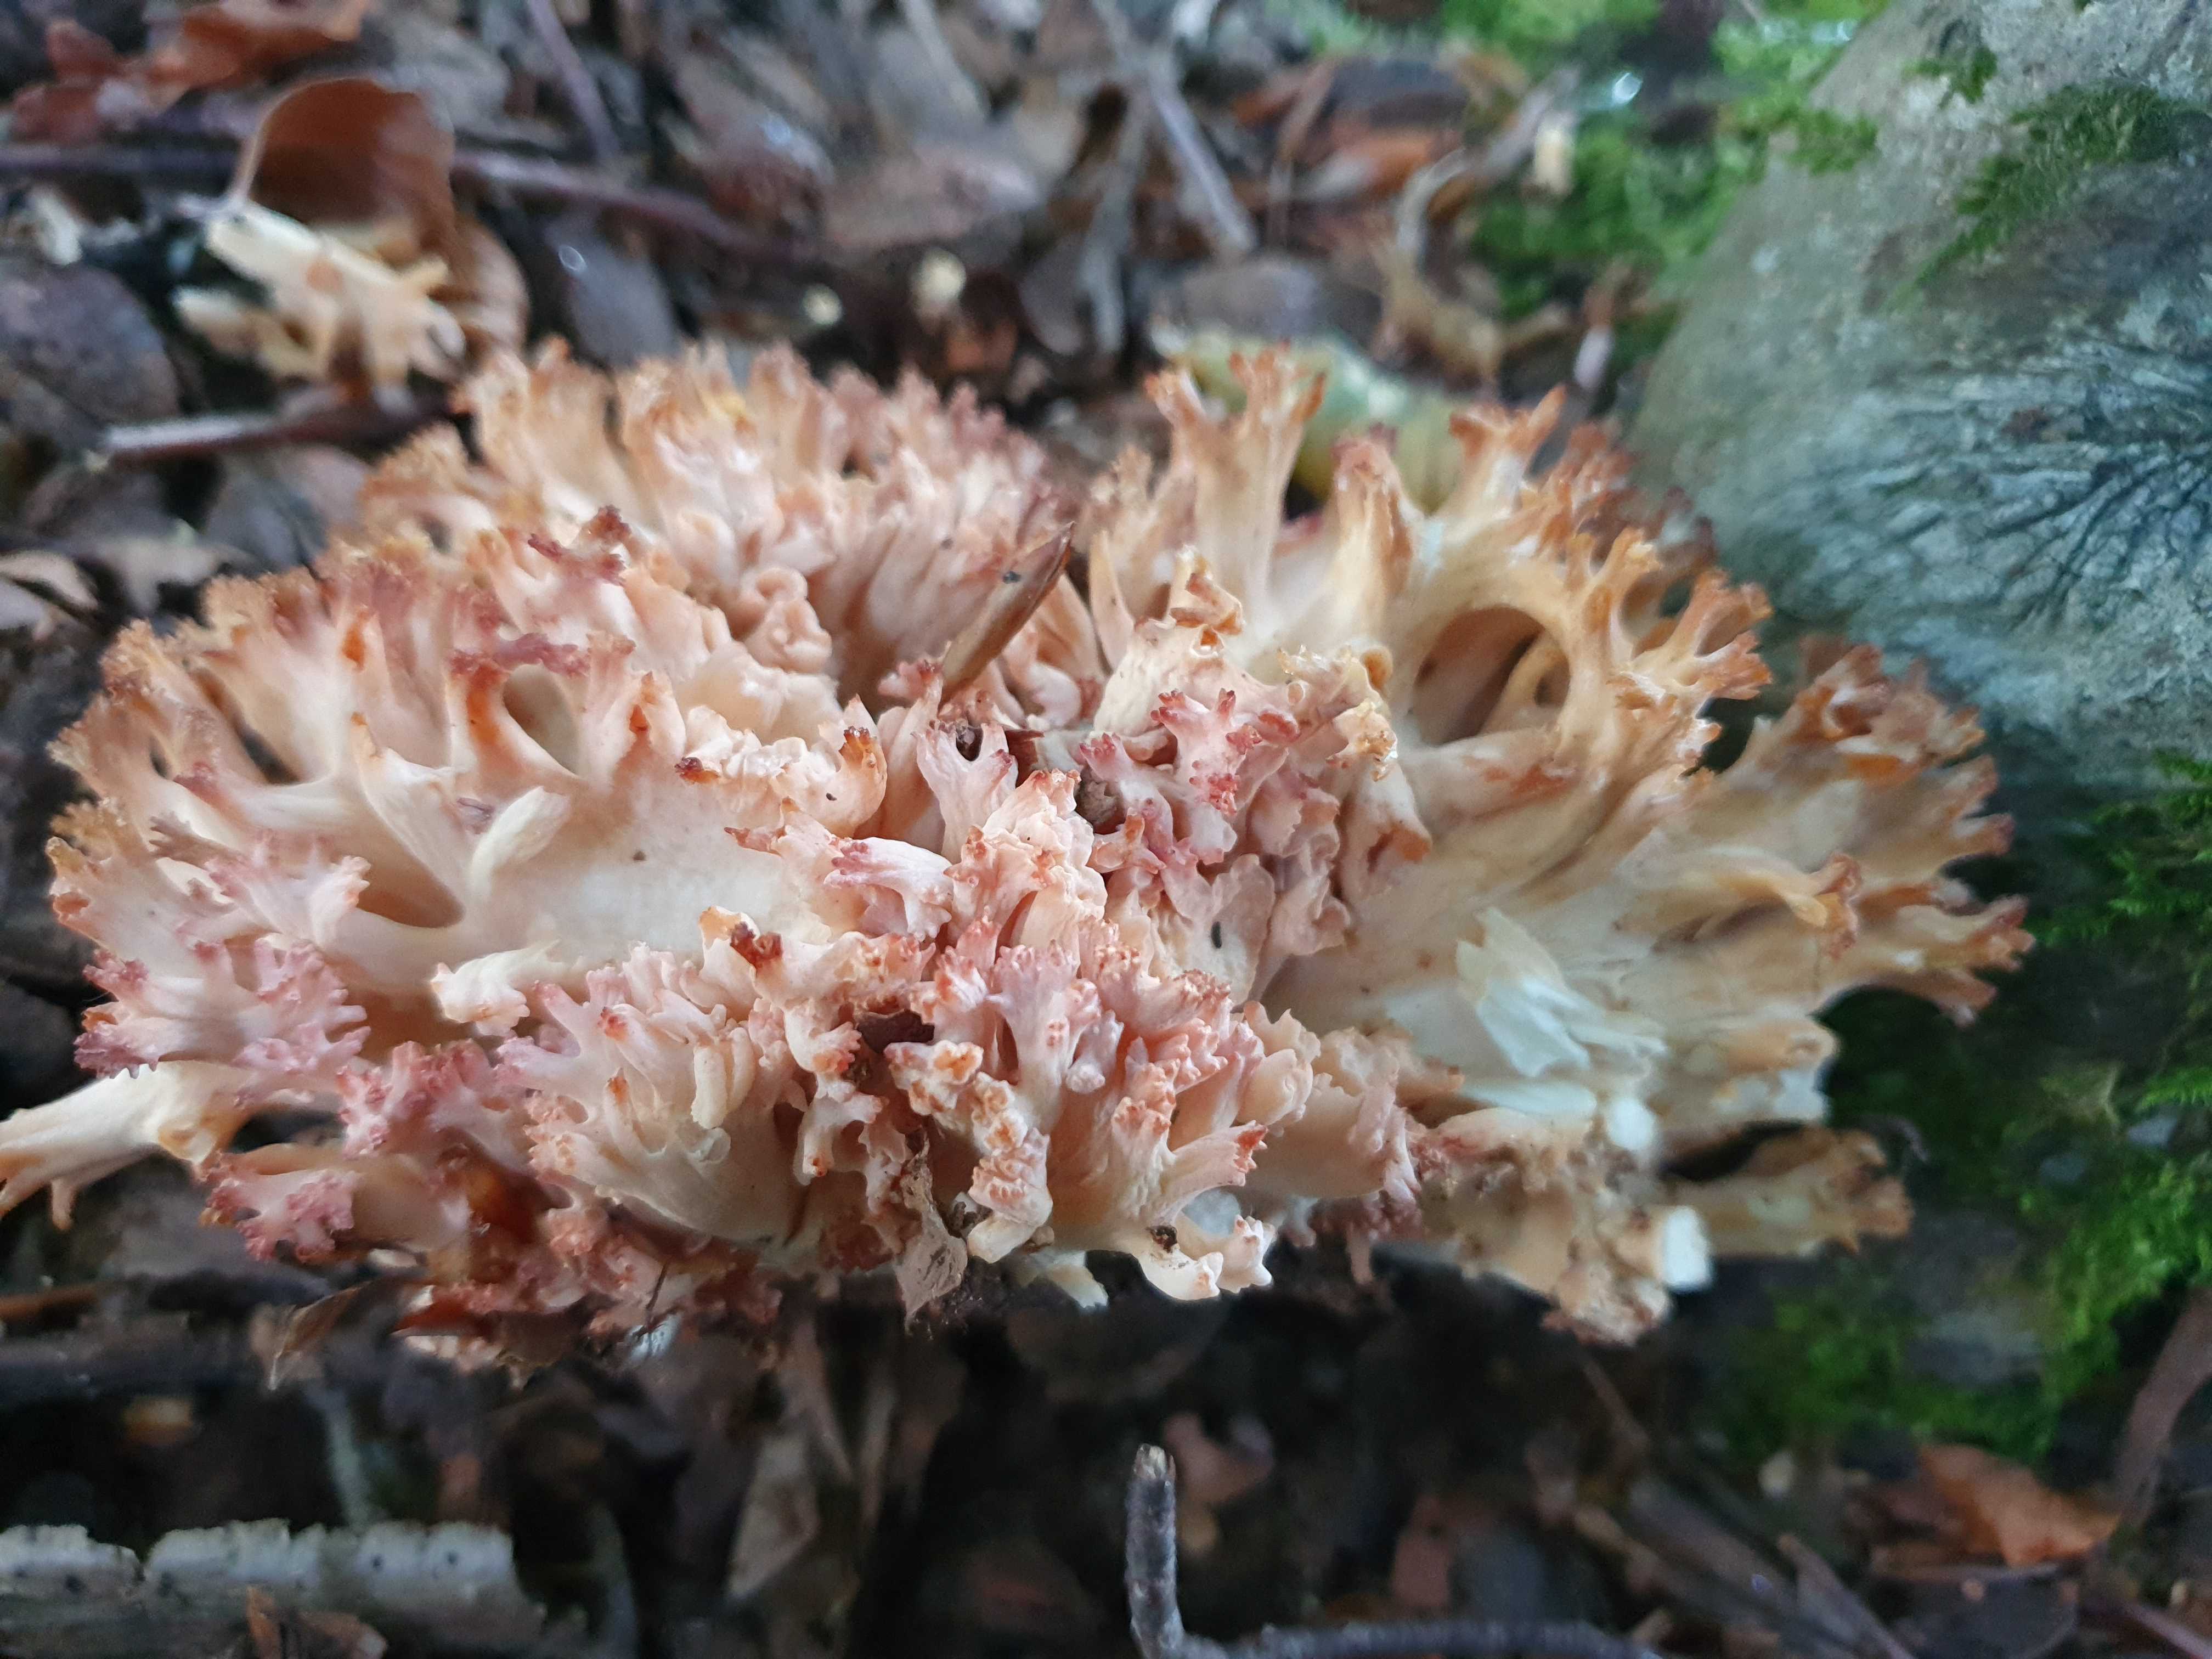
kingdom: Fungi
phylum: Basidiomycota
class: Agaricomycetes
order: Gomphales
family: Gomphaceae
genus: Ramaria
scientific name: Ramaria botrytis
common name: drue-koralsvamp
